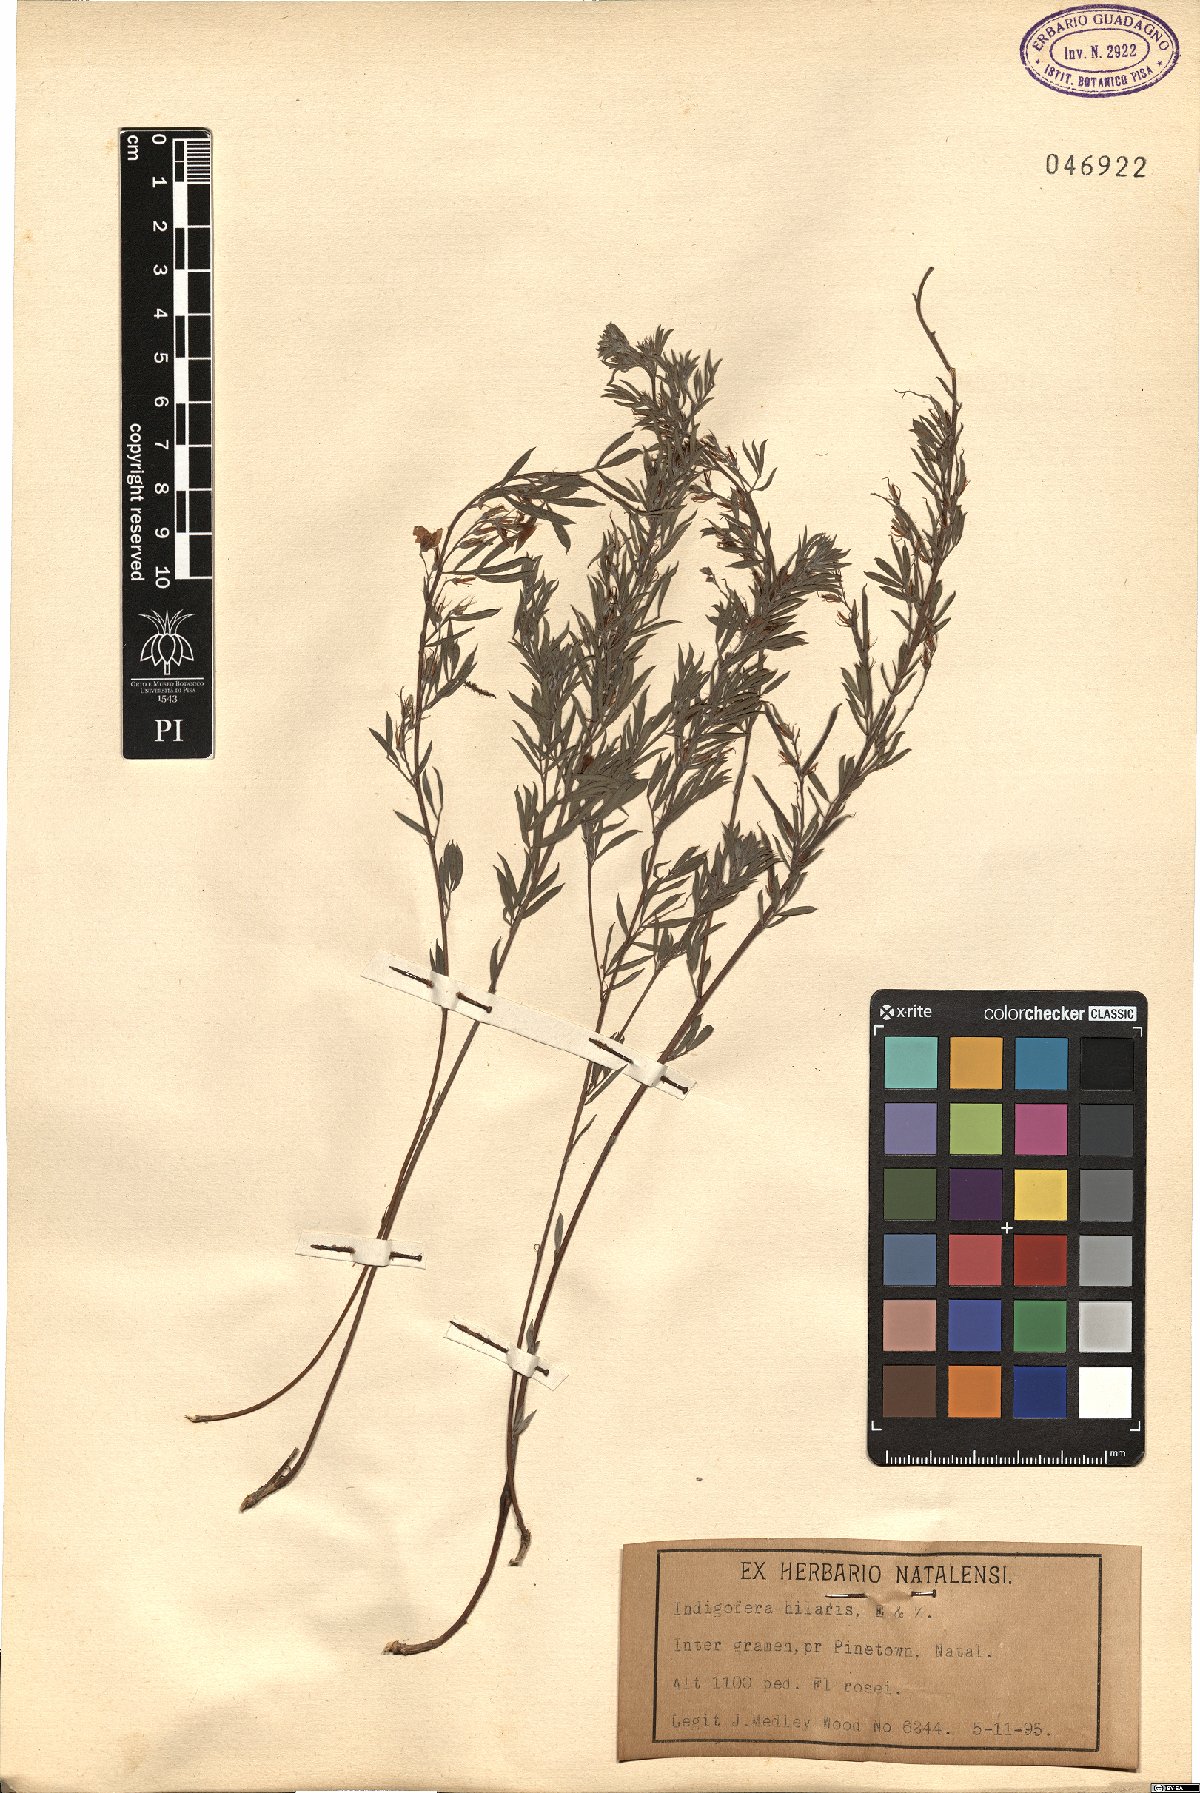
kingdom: Plantae
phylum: Tracheophyta
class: Magnoliopsida
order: Fabales
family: Fabaceae
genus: Indigofera
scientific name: Indigofera hilaris
